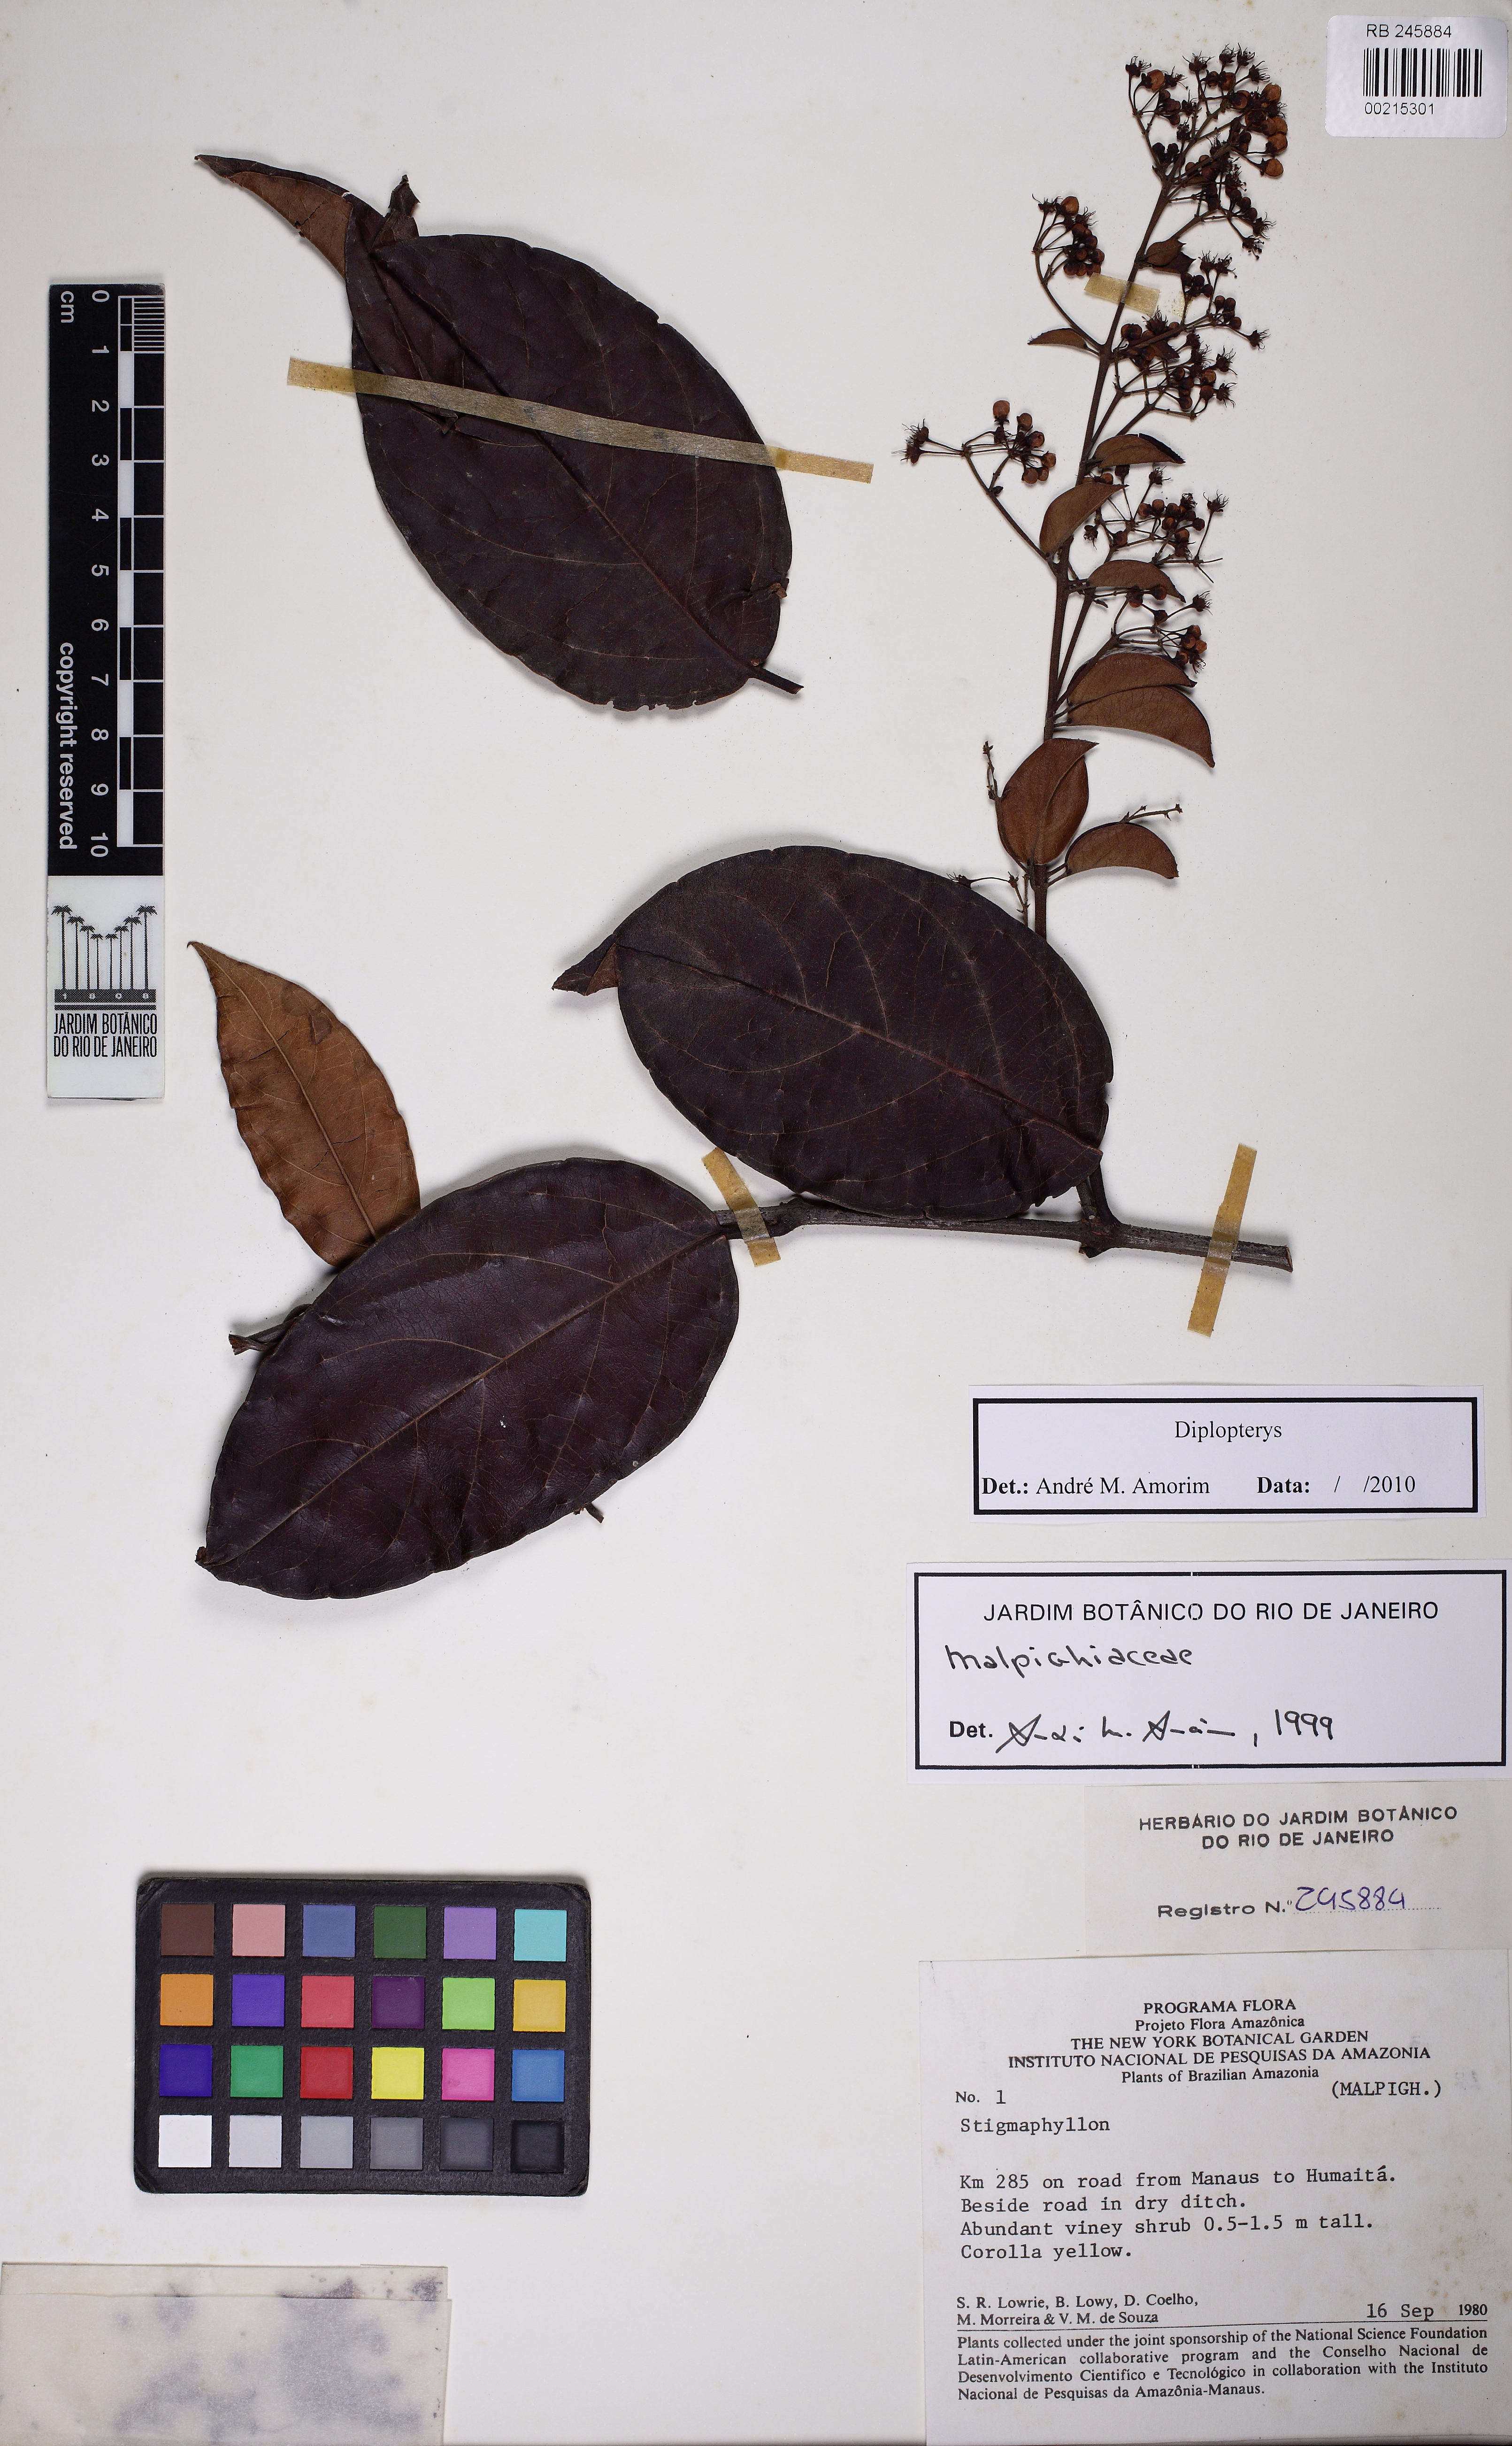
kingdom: Plantae
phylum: Tracheophyta
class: Magnoliopsida
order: Malpighiales
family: Malpighiaceae
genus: Diplopterys
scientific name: Diplopterys
